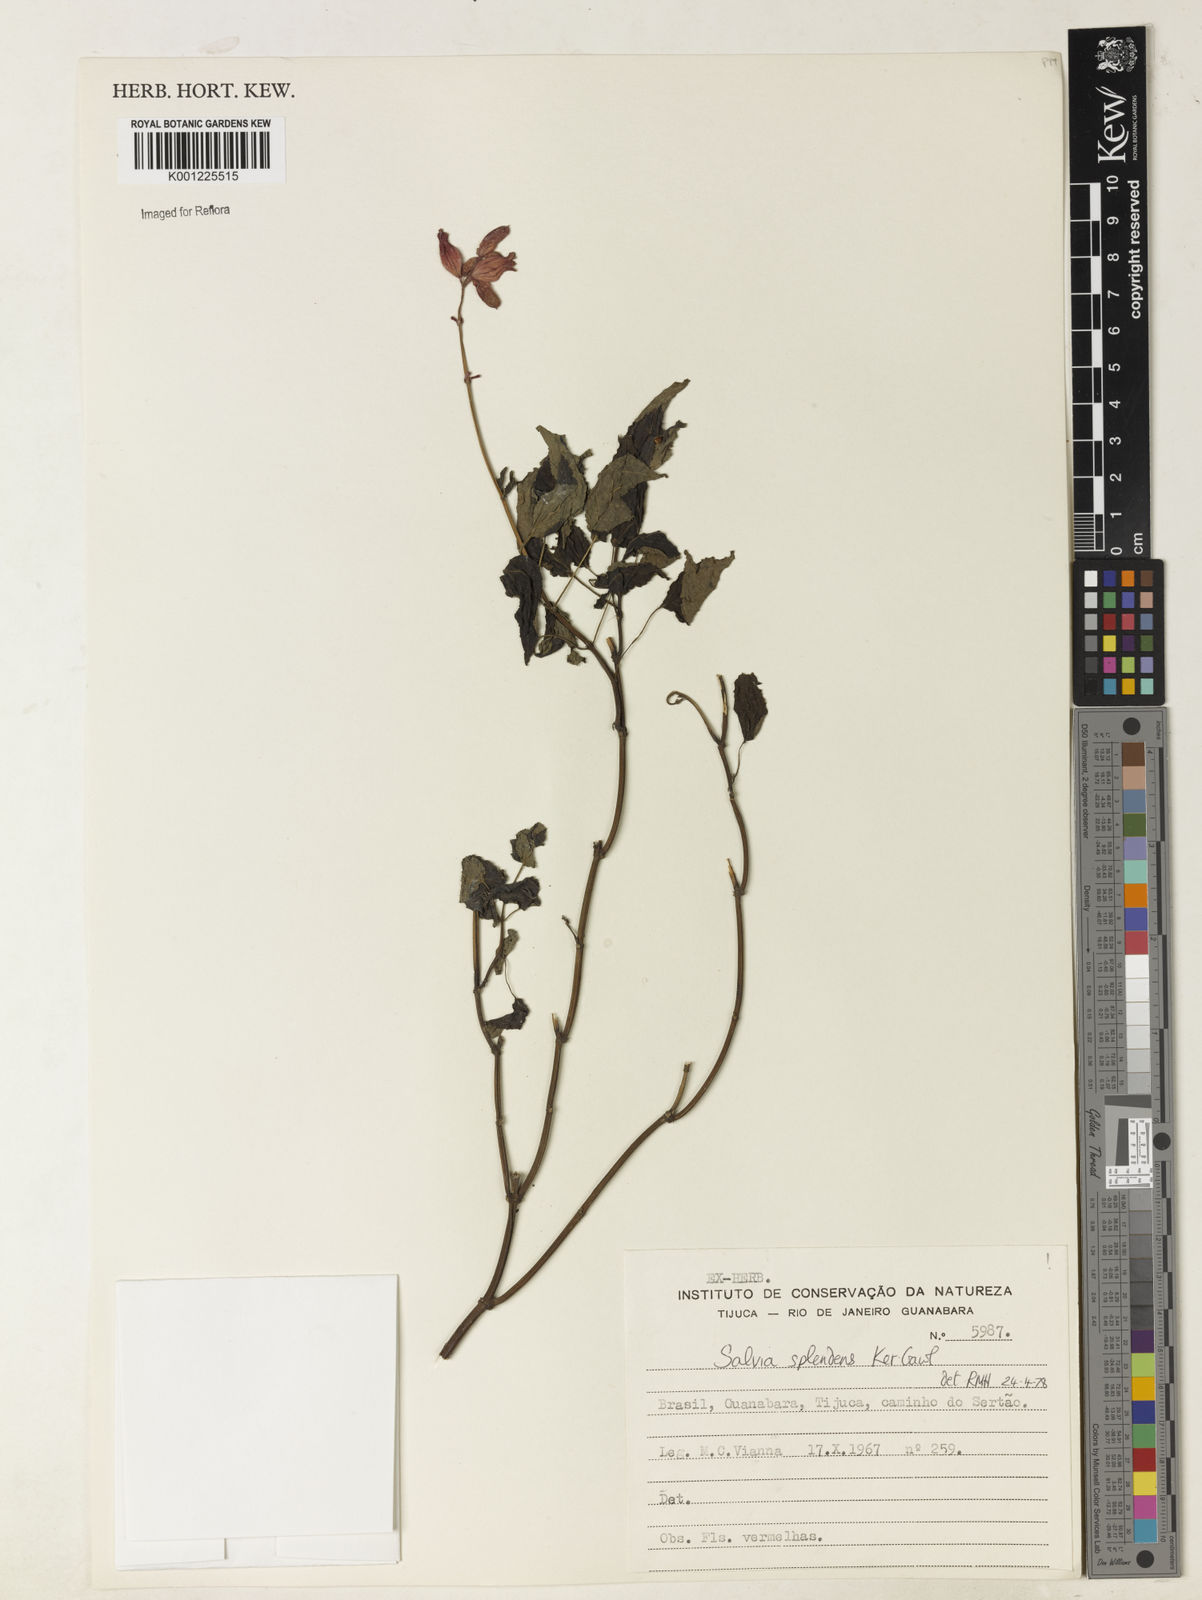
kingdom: Plantae
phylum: Tracheophyta
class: Magnoliopsida
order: Lamiales
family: Lamiaceae
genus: Salvia
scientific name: Salvia
